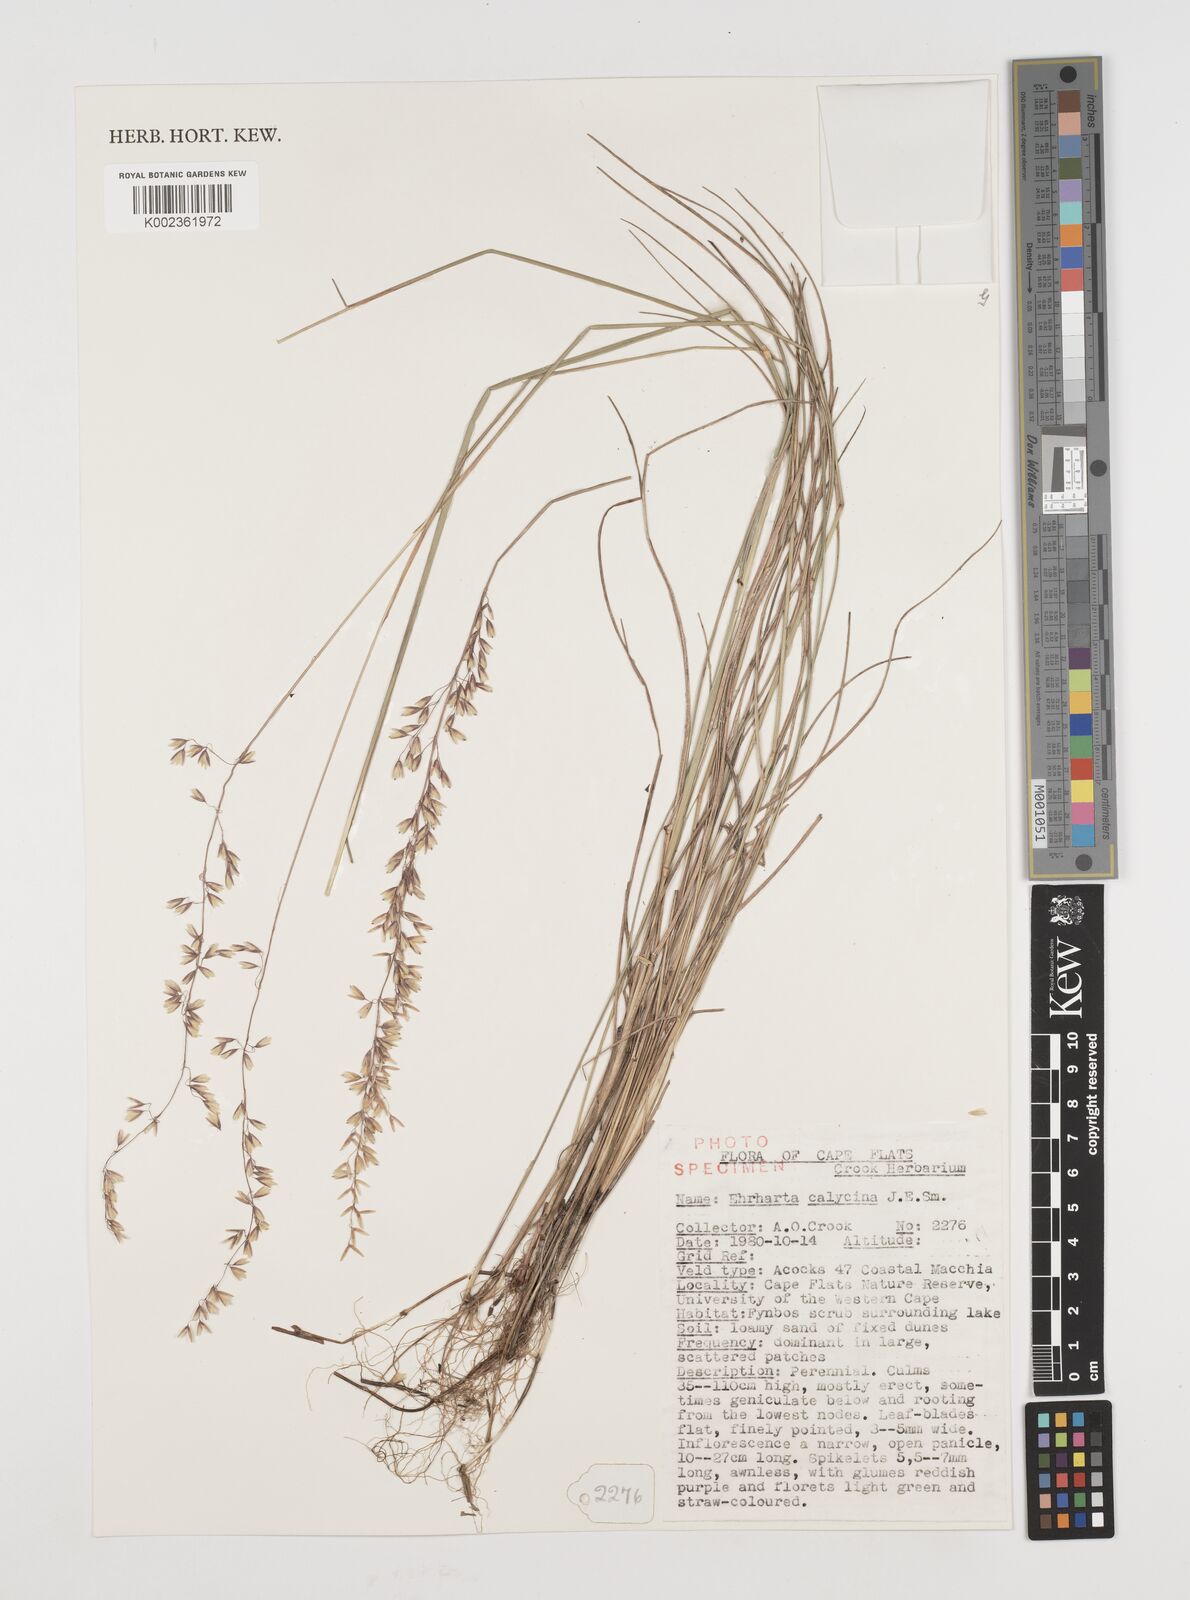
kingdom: Plantae
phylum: Tracheophyta
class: Liliopsida
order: Poales
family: Poaceae
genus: Ehrharta
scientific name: Ehrharta calycina
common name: Perennial veldtgrass
